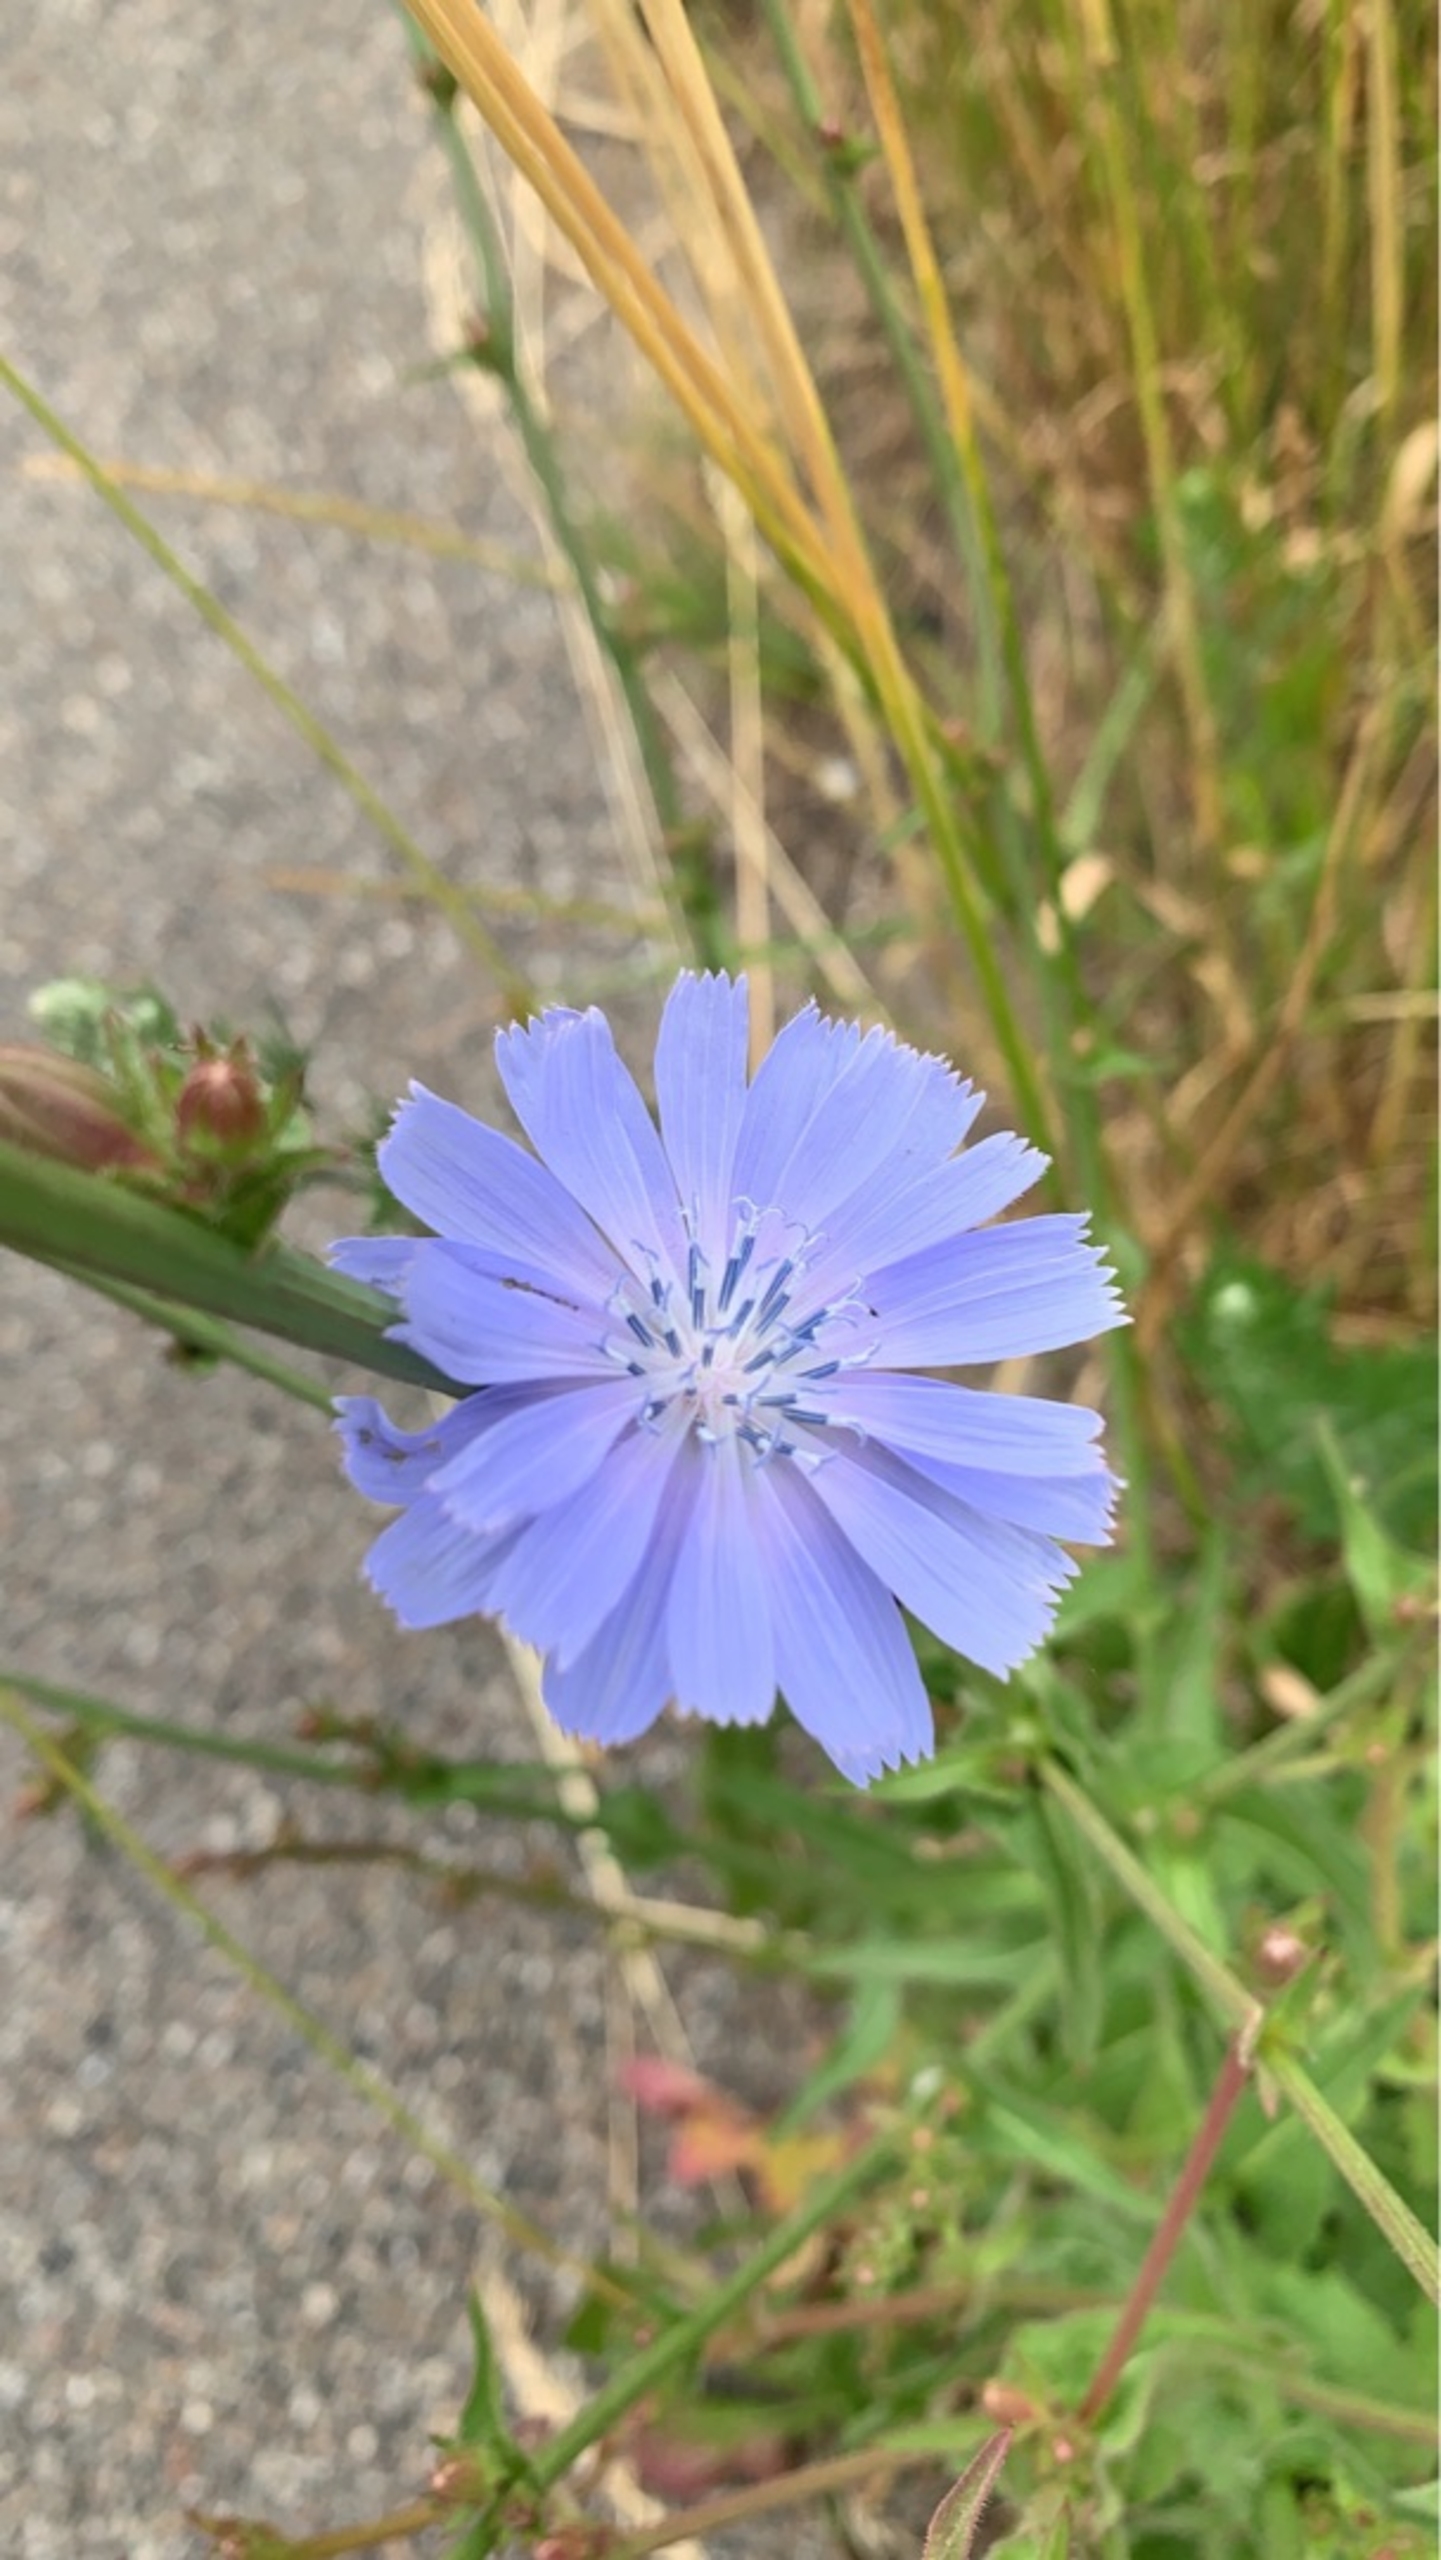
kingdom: Plantae
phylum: Tracheophyta
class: Magnoliopsida
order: Asterales
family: Asteraceae
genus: Cichorium
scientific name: Cichorium intybus
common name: Cikorie
